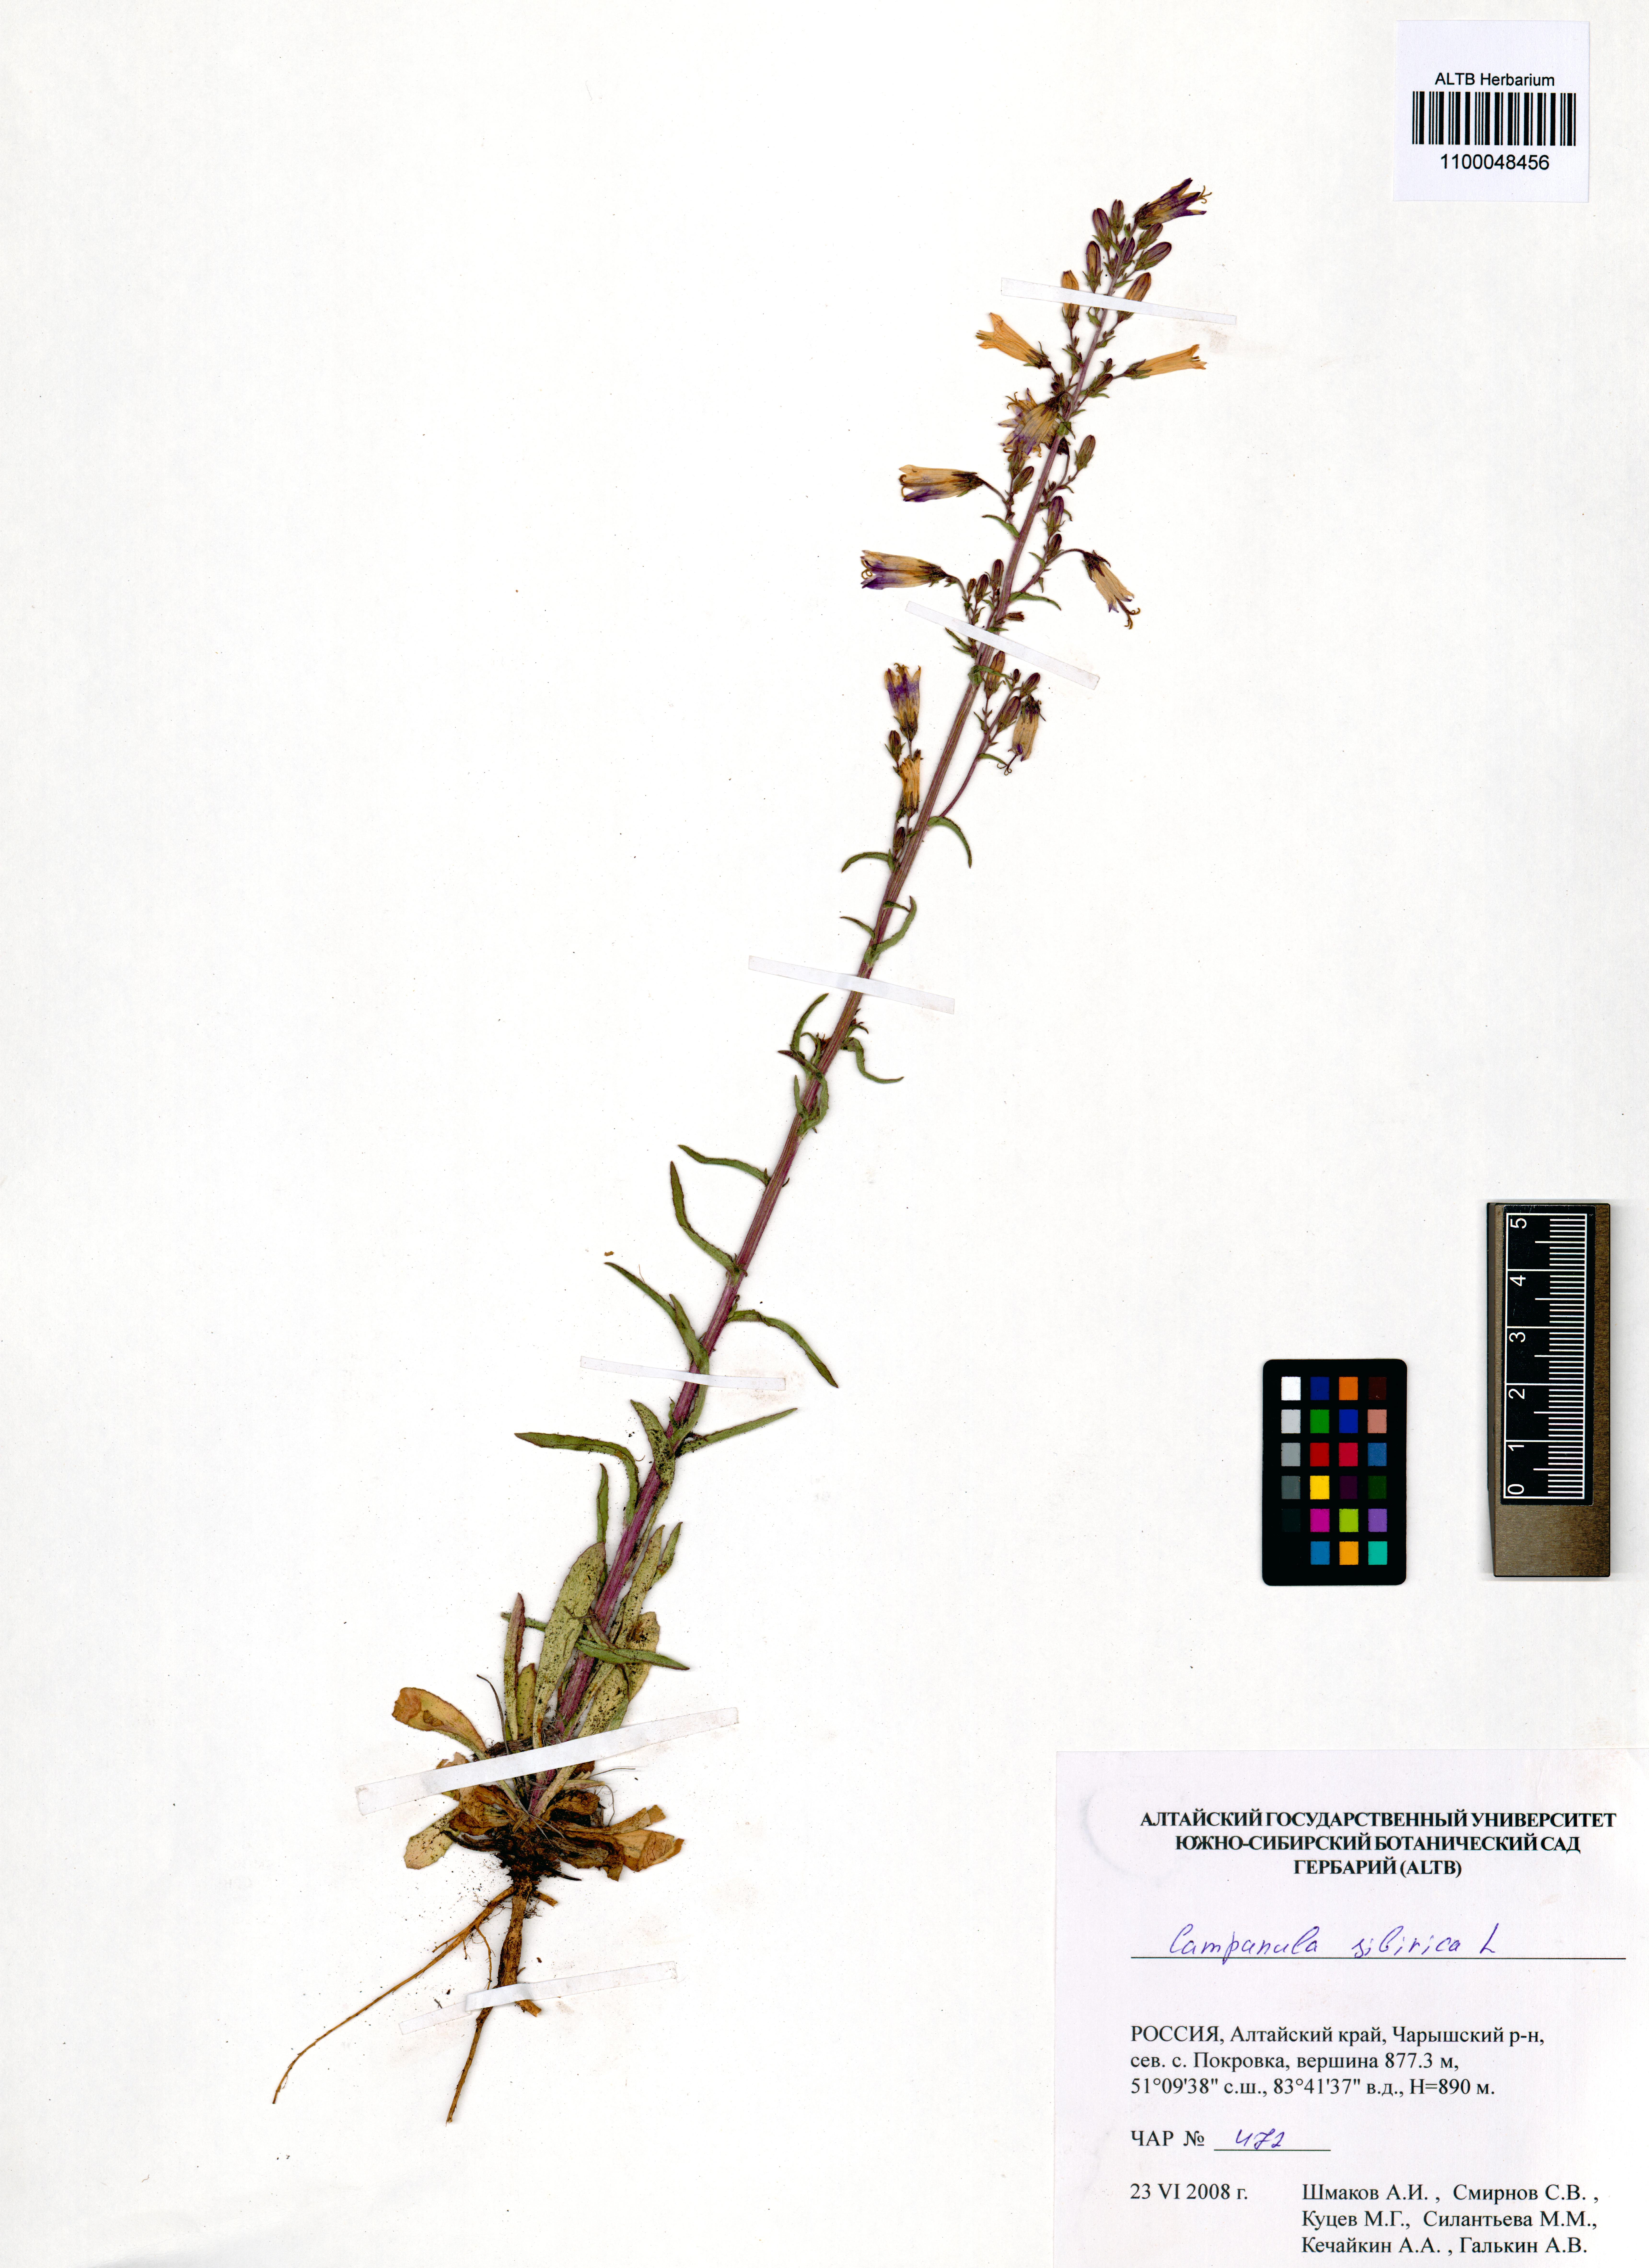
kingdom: Plantae
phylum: Tracheophyta
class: Magnoliopsida
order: Asterales
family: Campanulaceae
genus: Campanula
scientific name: Campanula sibirica
